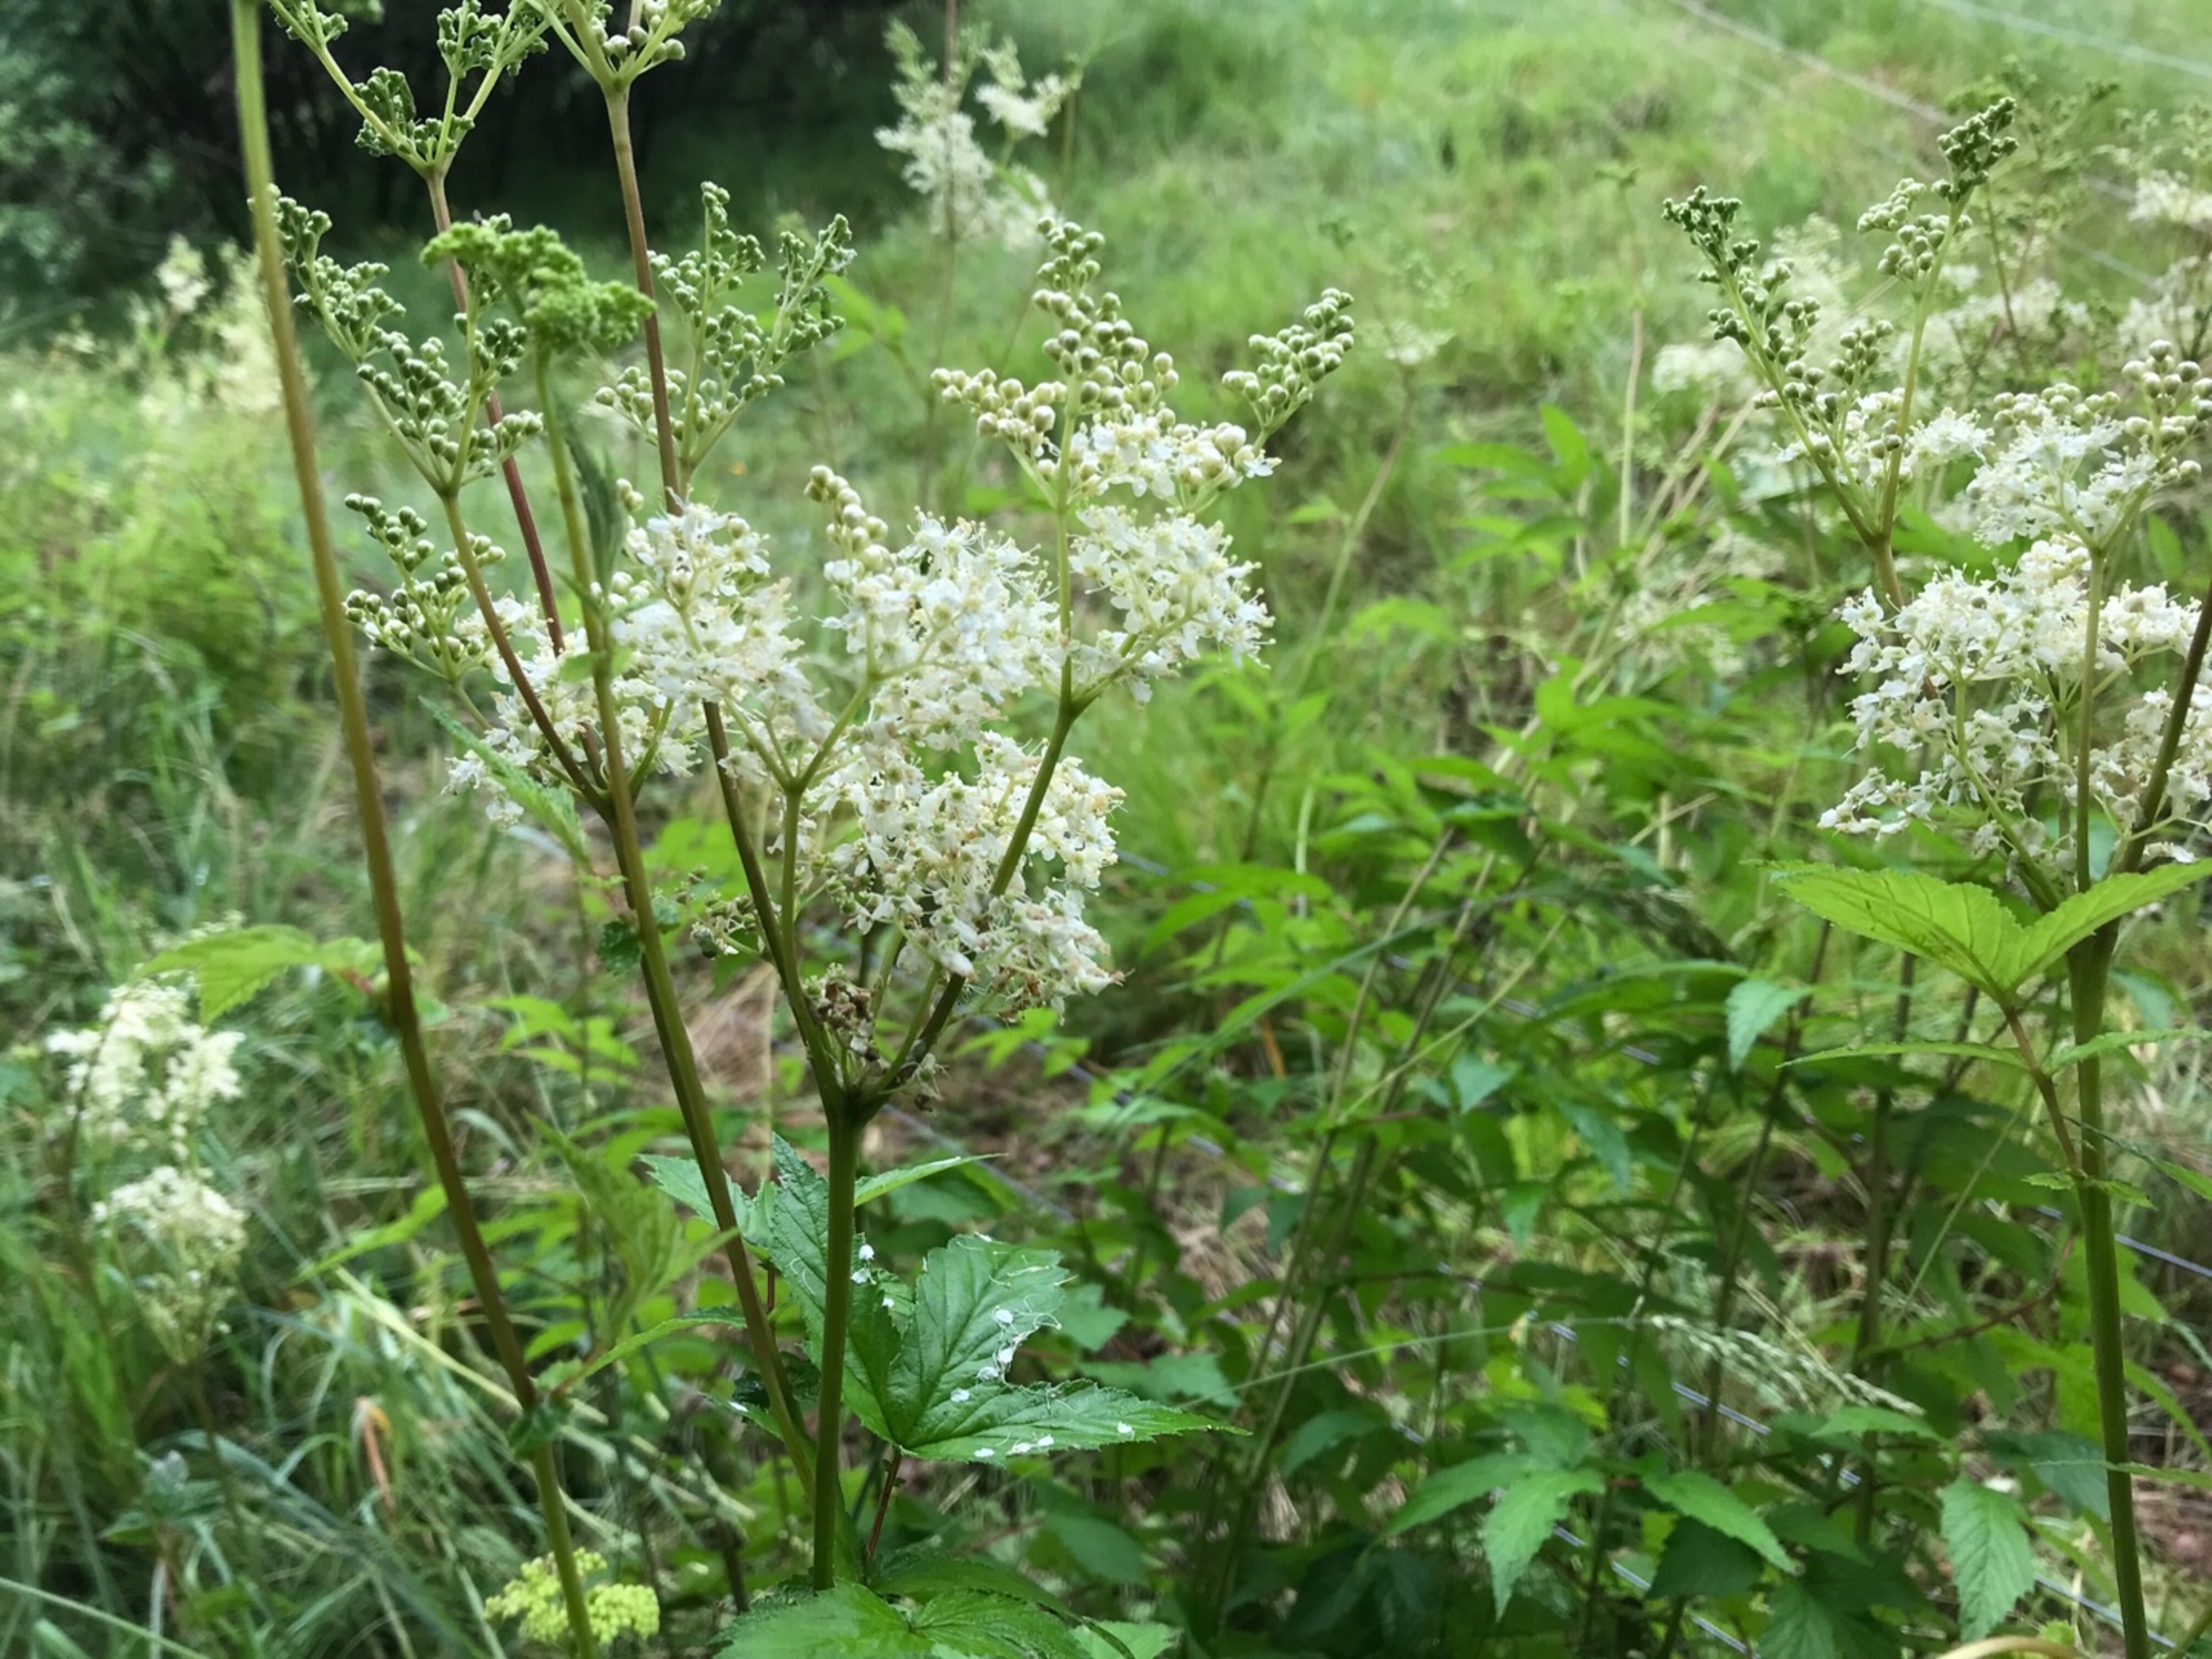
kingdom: Plantae
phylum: Tracheophyta
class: Magnoliopsida
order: Rosales
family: Rosaceae
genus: Filipendula
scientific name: Filipendula ulmaria
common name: Almindelig mjødurt
